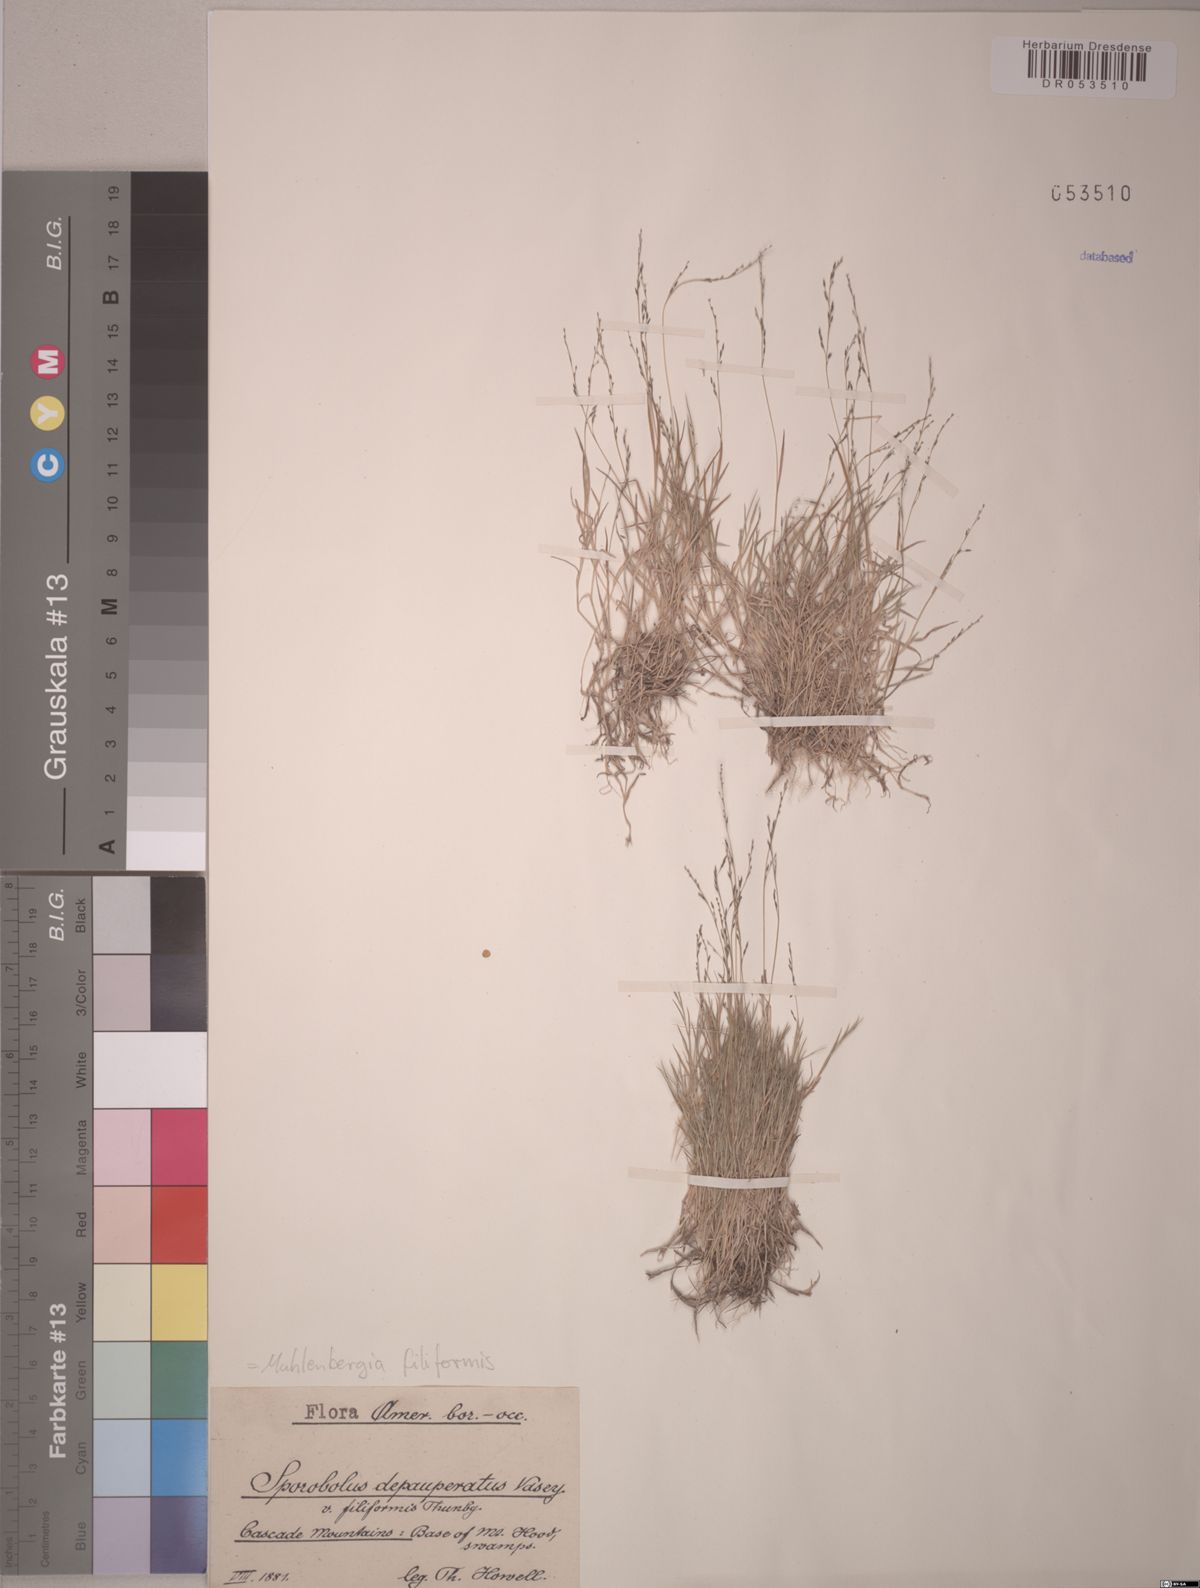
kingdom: Plantae
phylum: Tracheophyta
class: Liliopsida
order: Poales
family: Poaceae
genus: Muhlenbergia
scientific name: Muhlenbergia filiformis
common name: Pull-up muhly
